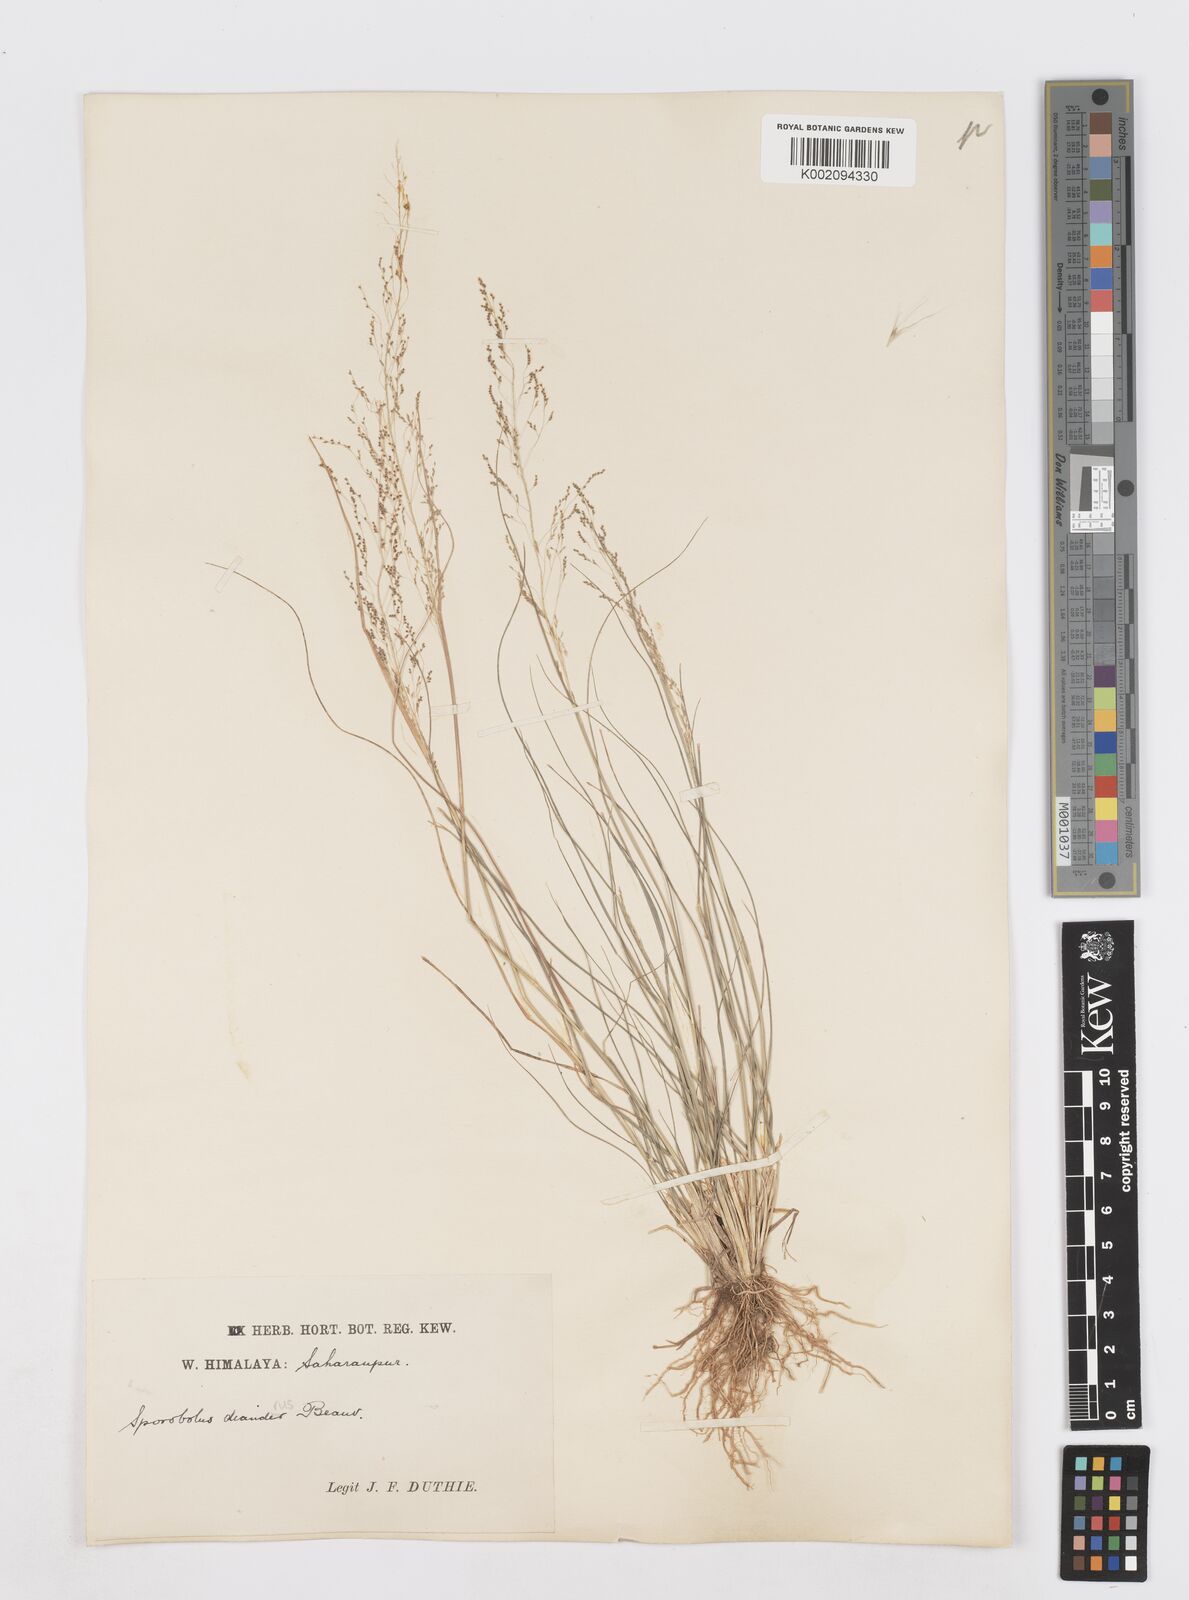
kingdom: Plantae
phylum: Tracheophyta
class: Liliopsida
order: Poales
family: Poaceae
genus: Sporobolus
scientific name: Sporobolus diandrus
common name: Tussock dropseed
